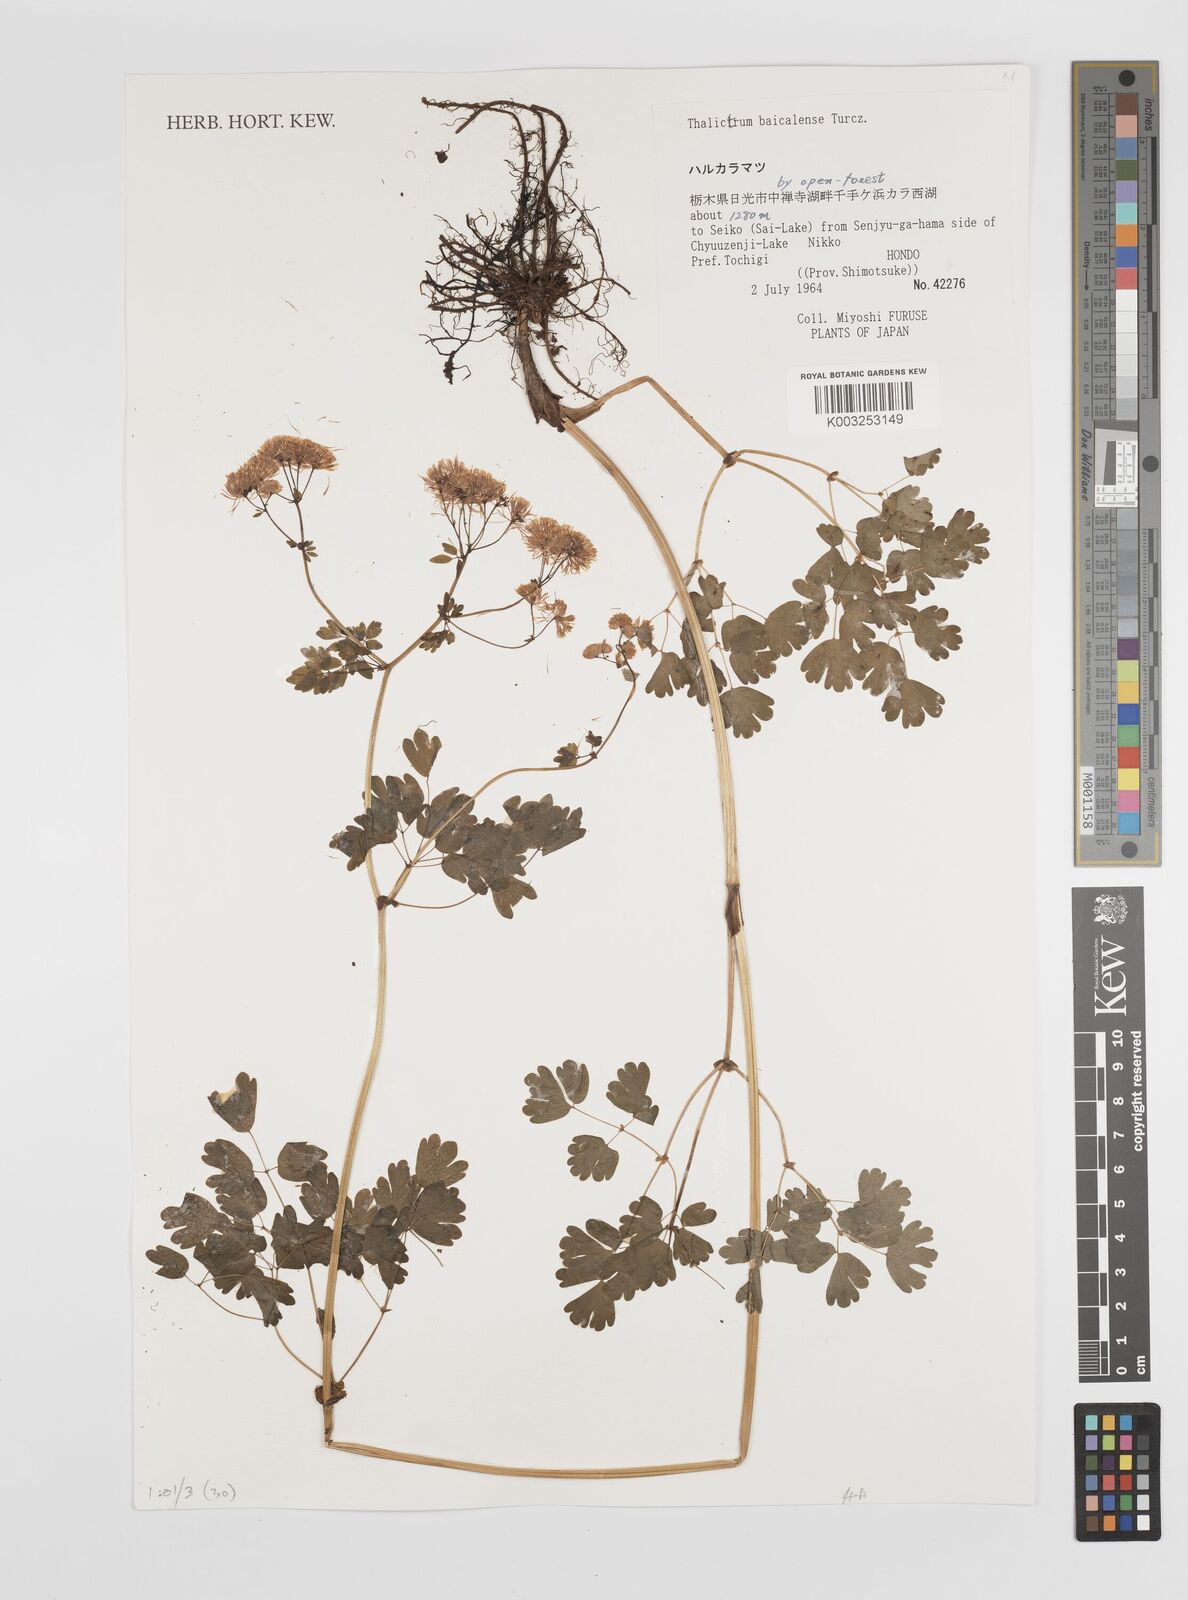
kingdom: Plantae
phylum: Tracheophyta
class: Magnoliopsida
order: Ranunculales
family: Ranunculaceae
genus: Thalictrum
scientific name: Thalictrum baicalense
